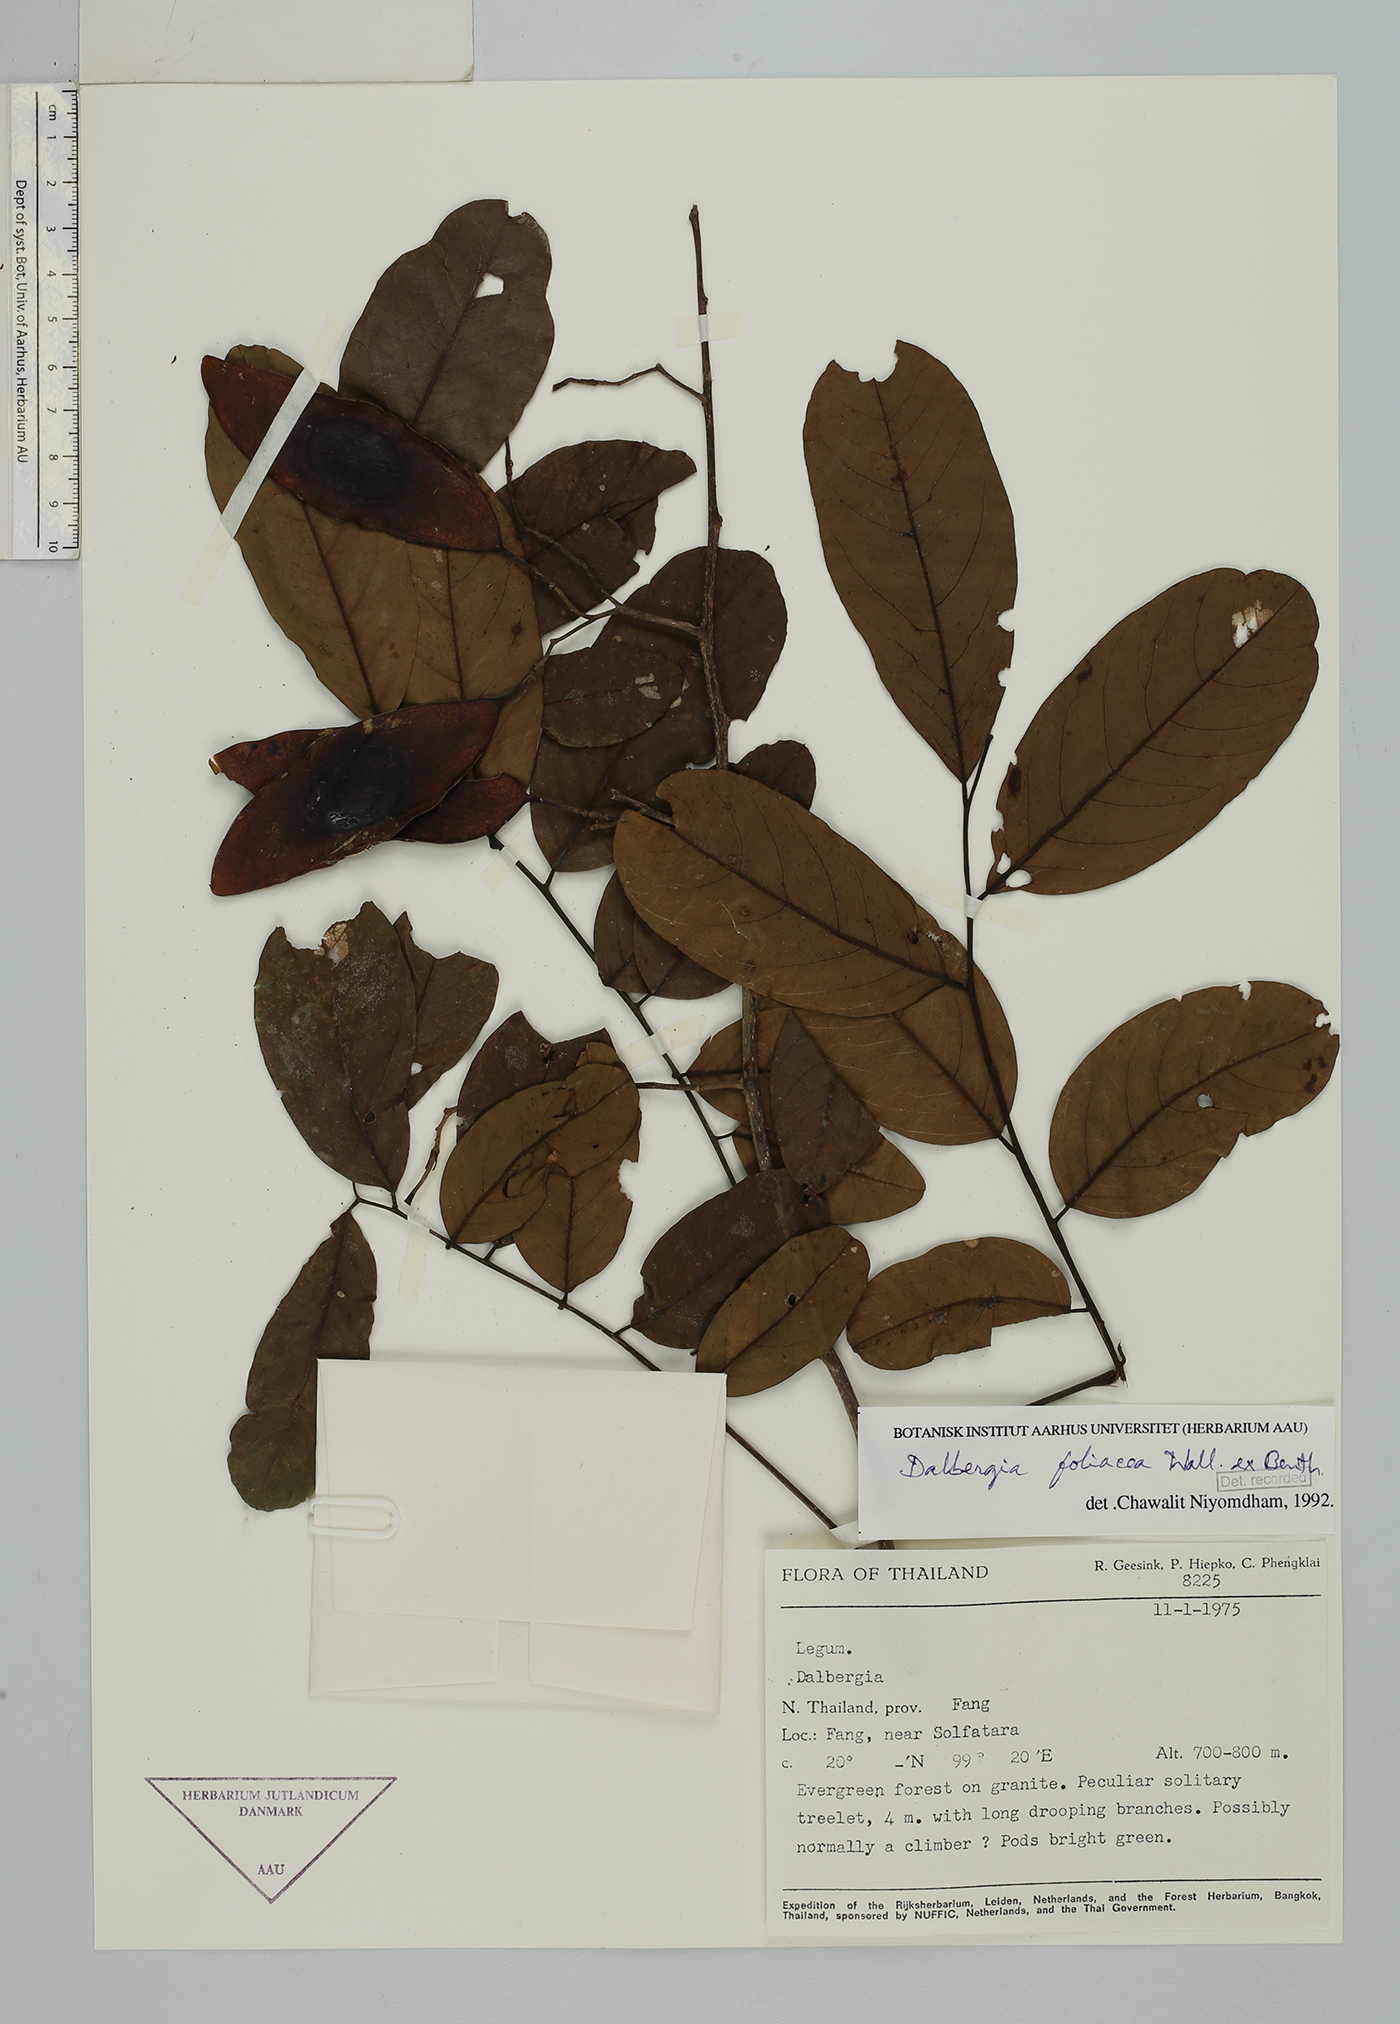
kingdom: Plantae
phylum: Tracheophyta
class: Magnoliopsida
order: Fabales
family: Fabaceae
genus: Dalbergia
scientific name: Dalbergia foliosa
